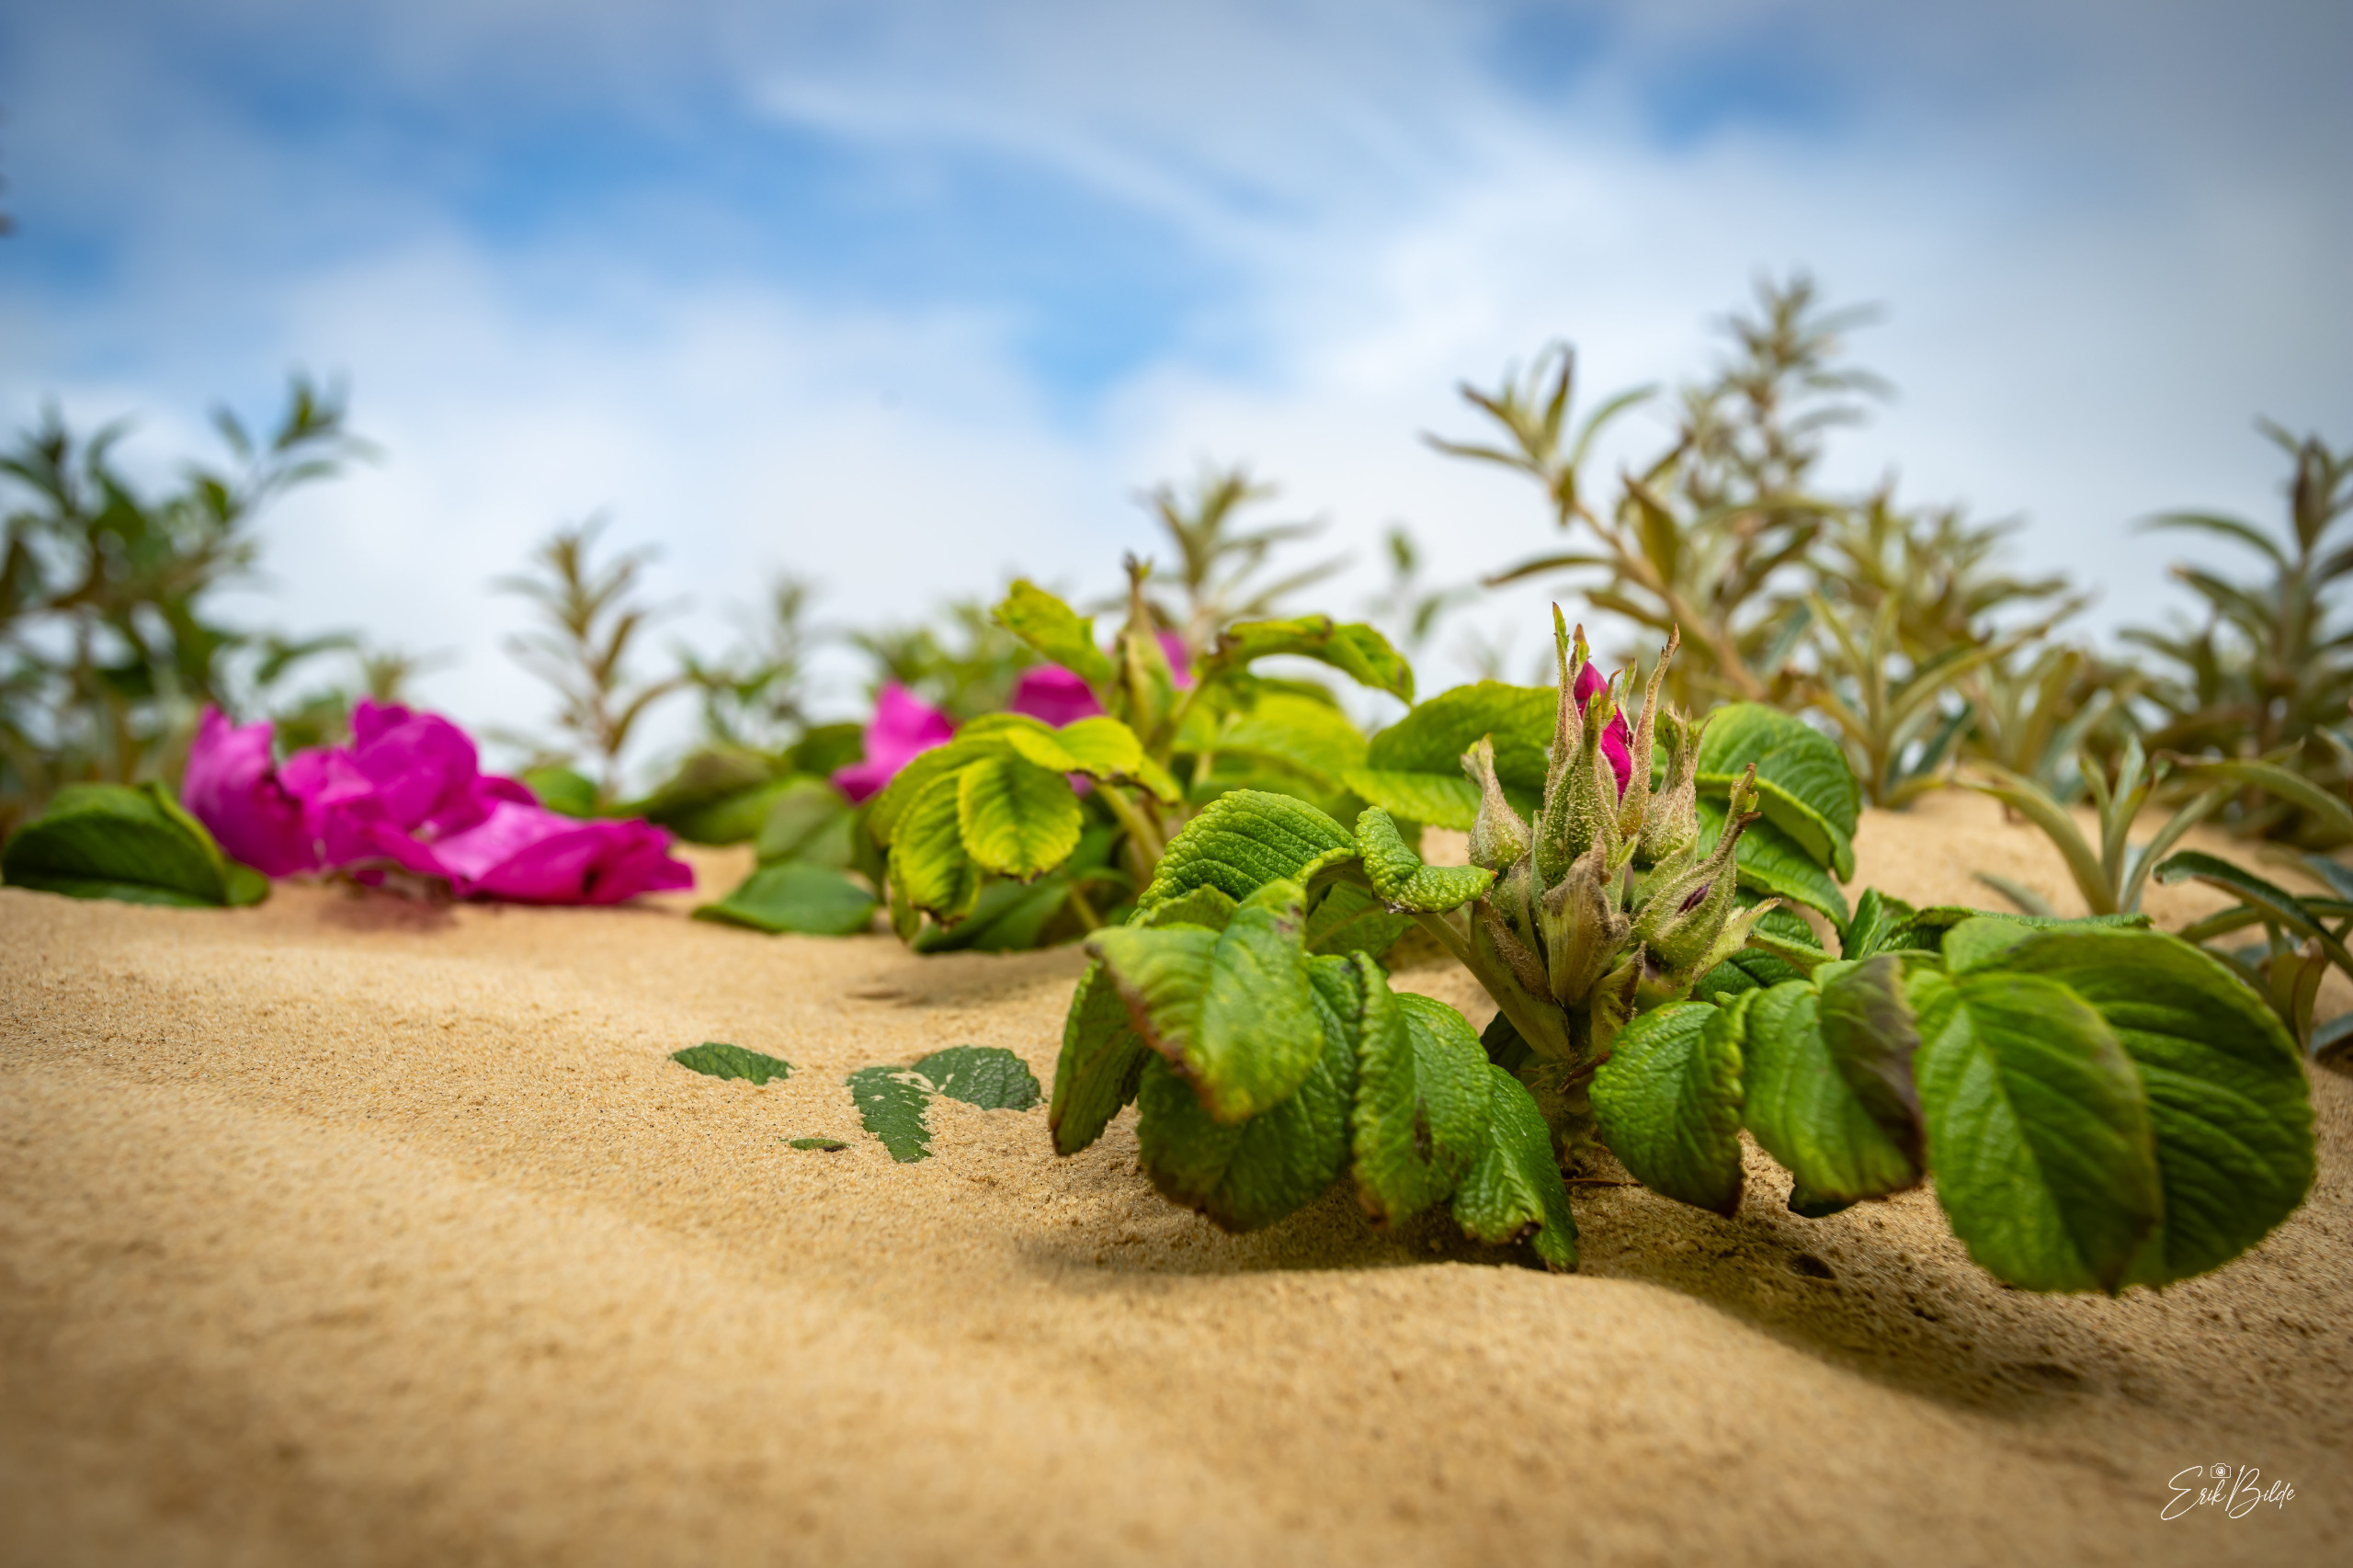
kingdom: Plantae
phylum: Tracheophyta
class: Magnoliopsida
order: Rosales
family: Rosaceae
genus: Rosa
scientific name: Rosa rugosa
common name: Rynket rose
